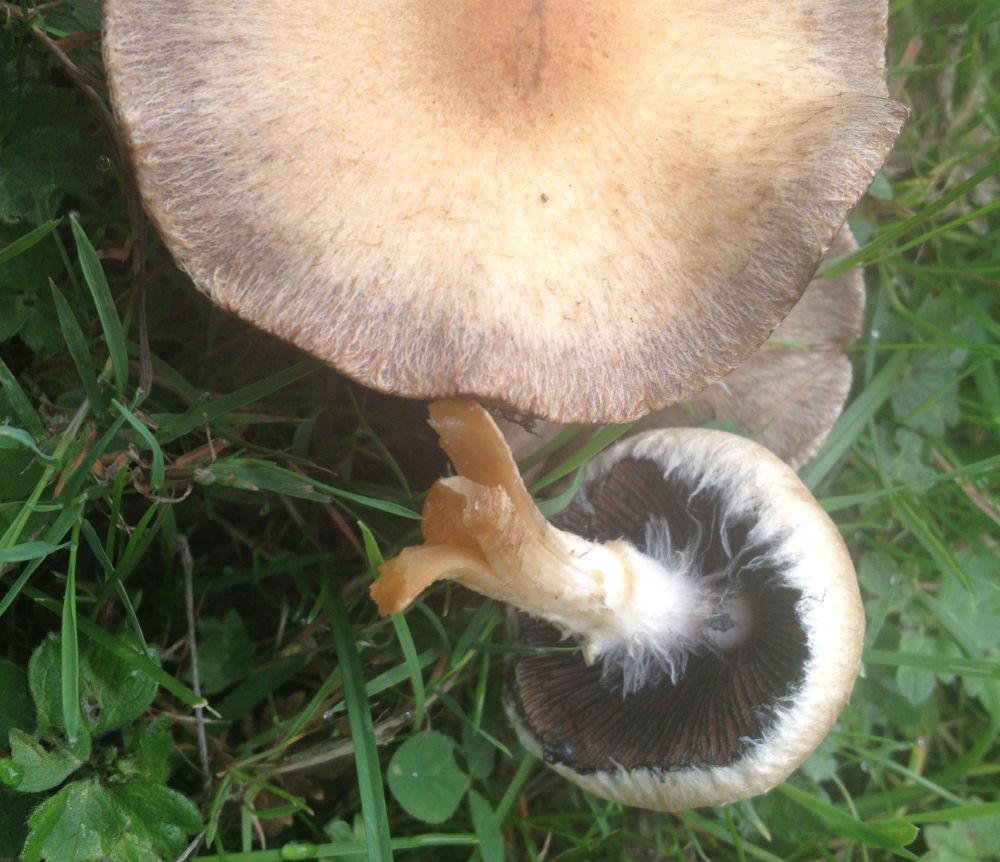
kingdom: Fungi
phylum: Basidiomycota
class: Agaricomycetes
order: Agaricales
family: Psathyrellaceae
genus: Lacrymaria
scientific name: Lacrymaria lacrymabunda
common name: grædende mørkhat
